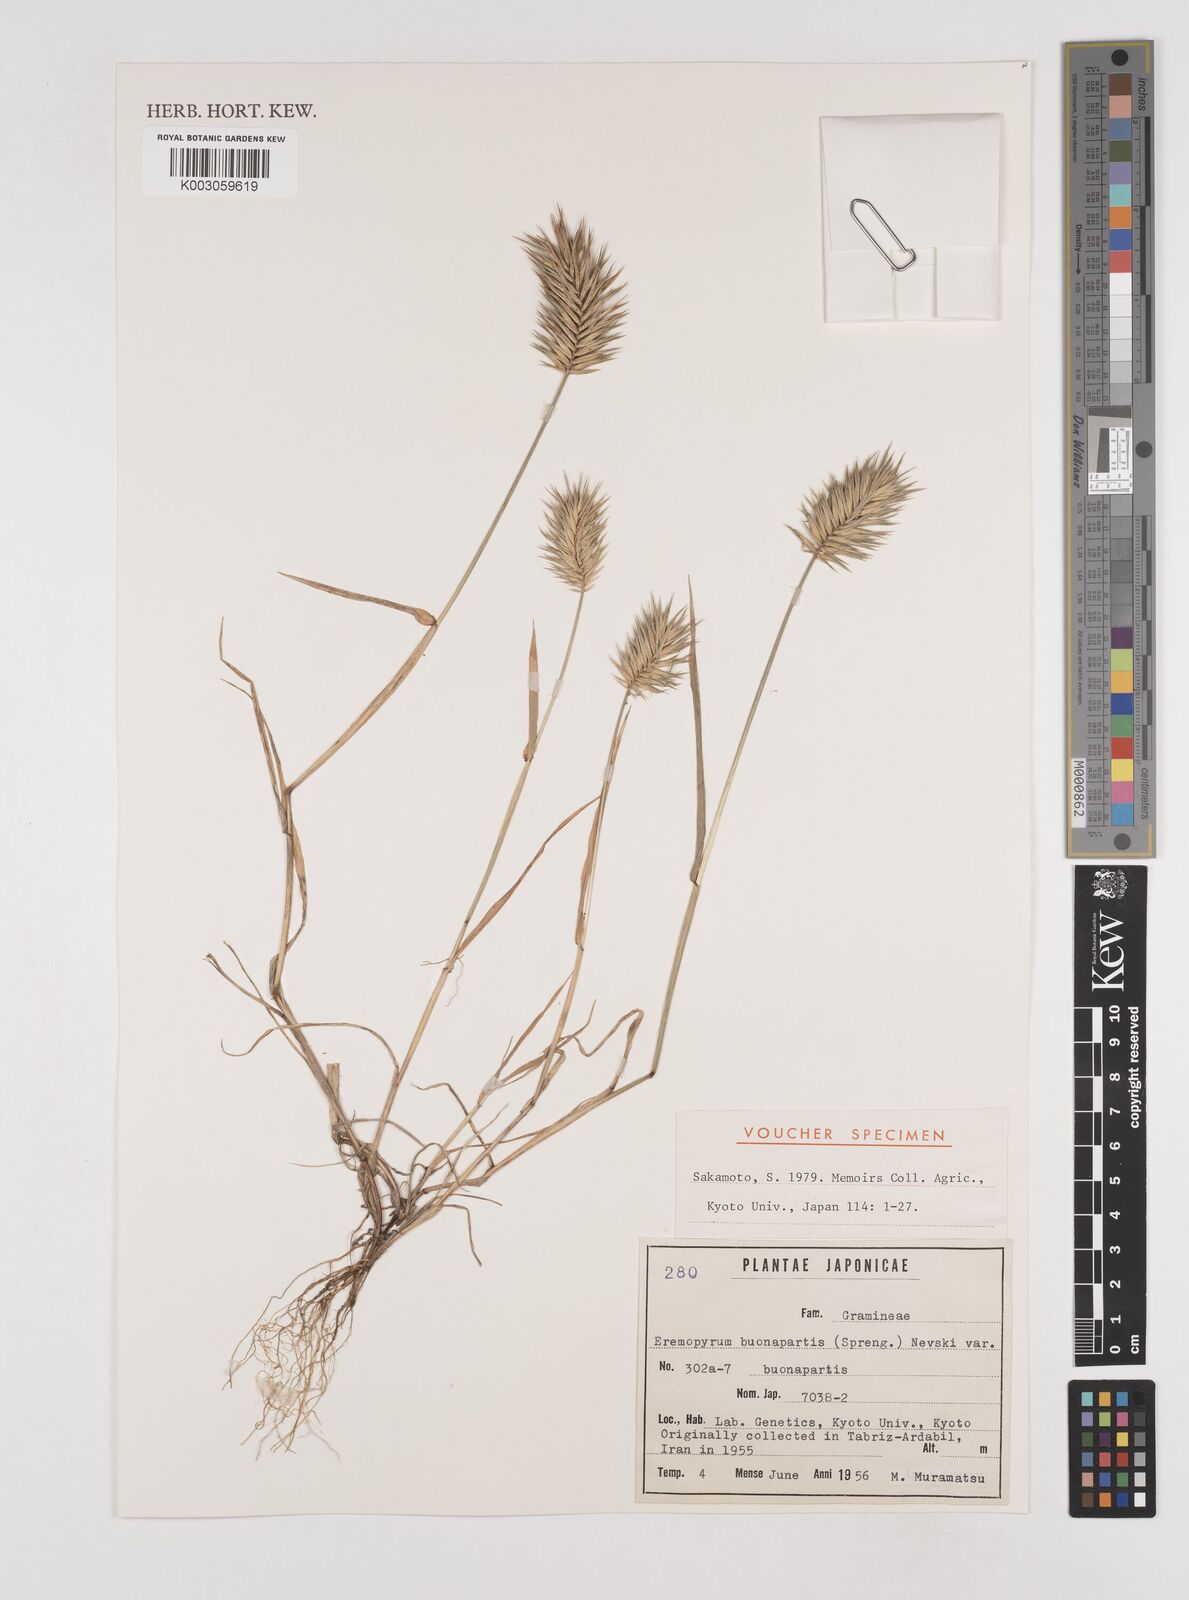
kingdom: Plantae
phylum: Tracheophyta
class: Liliopsida
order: Poales
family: Poaceae
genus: Eremopyrum
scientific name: Eremopyrum bonaepartis
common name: Tapertip false wheatgrass
